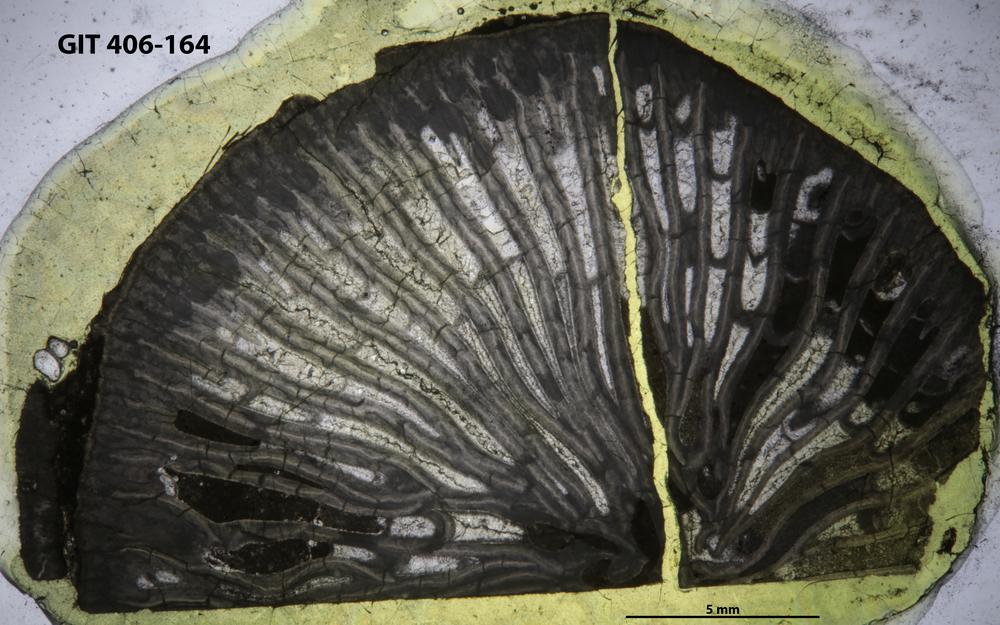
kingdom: Animalia
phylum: Cnidaria
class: Anthozoa
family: Streptelasmatidae
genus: Helicelasma
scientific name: Helicelasma
